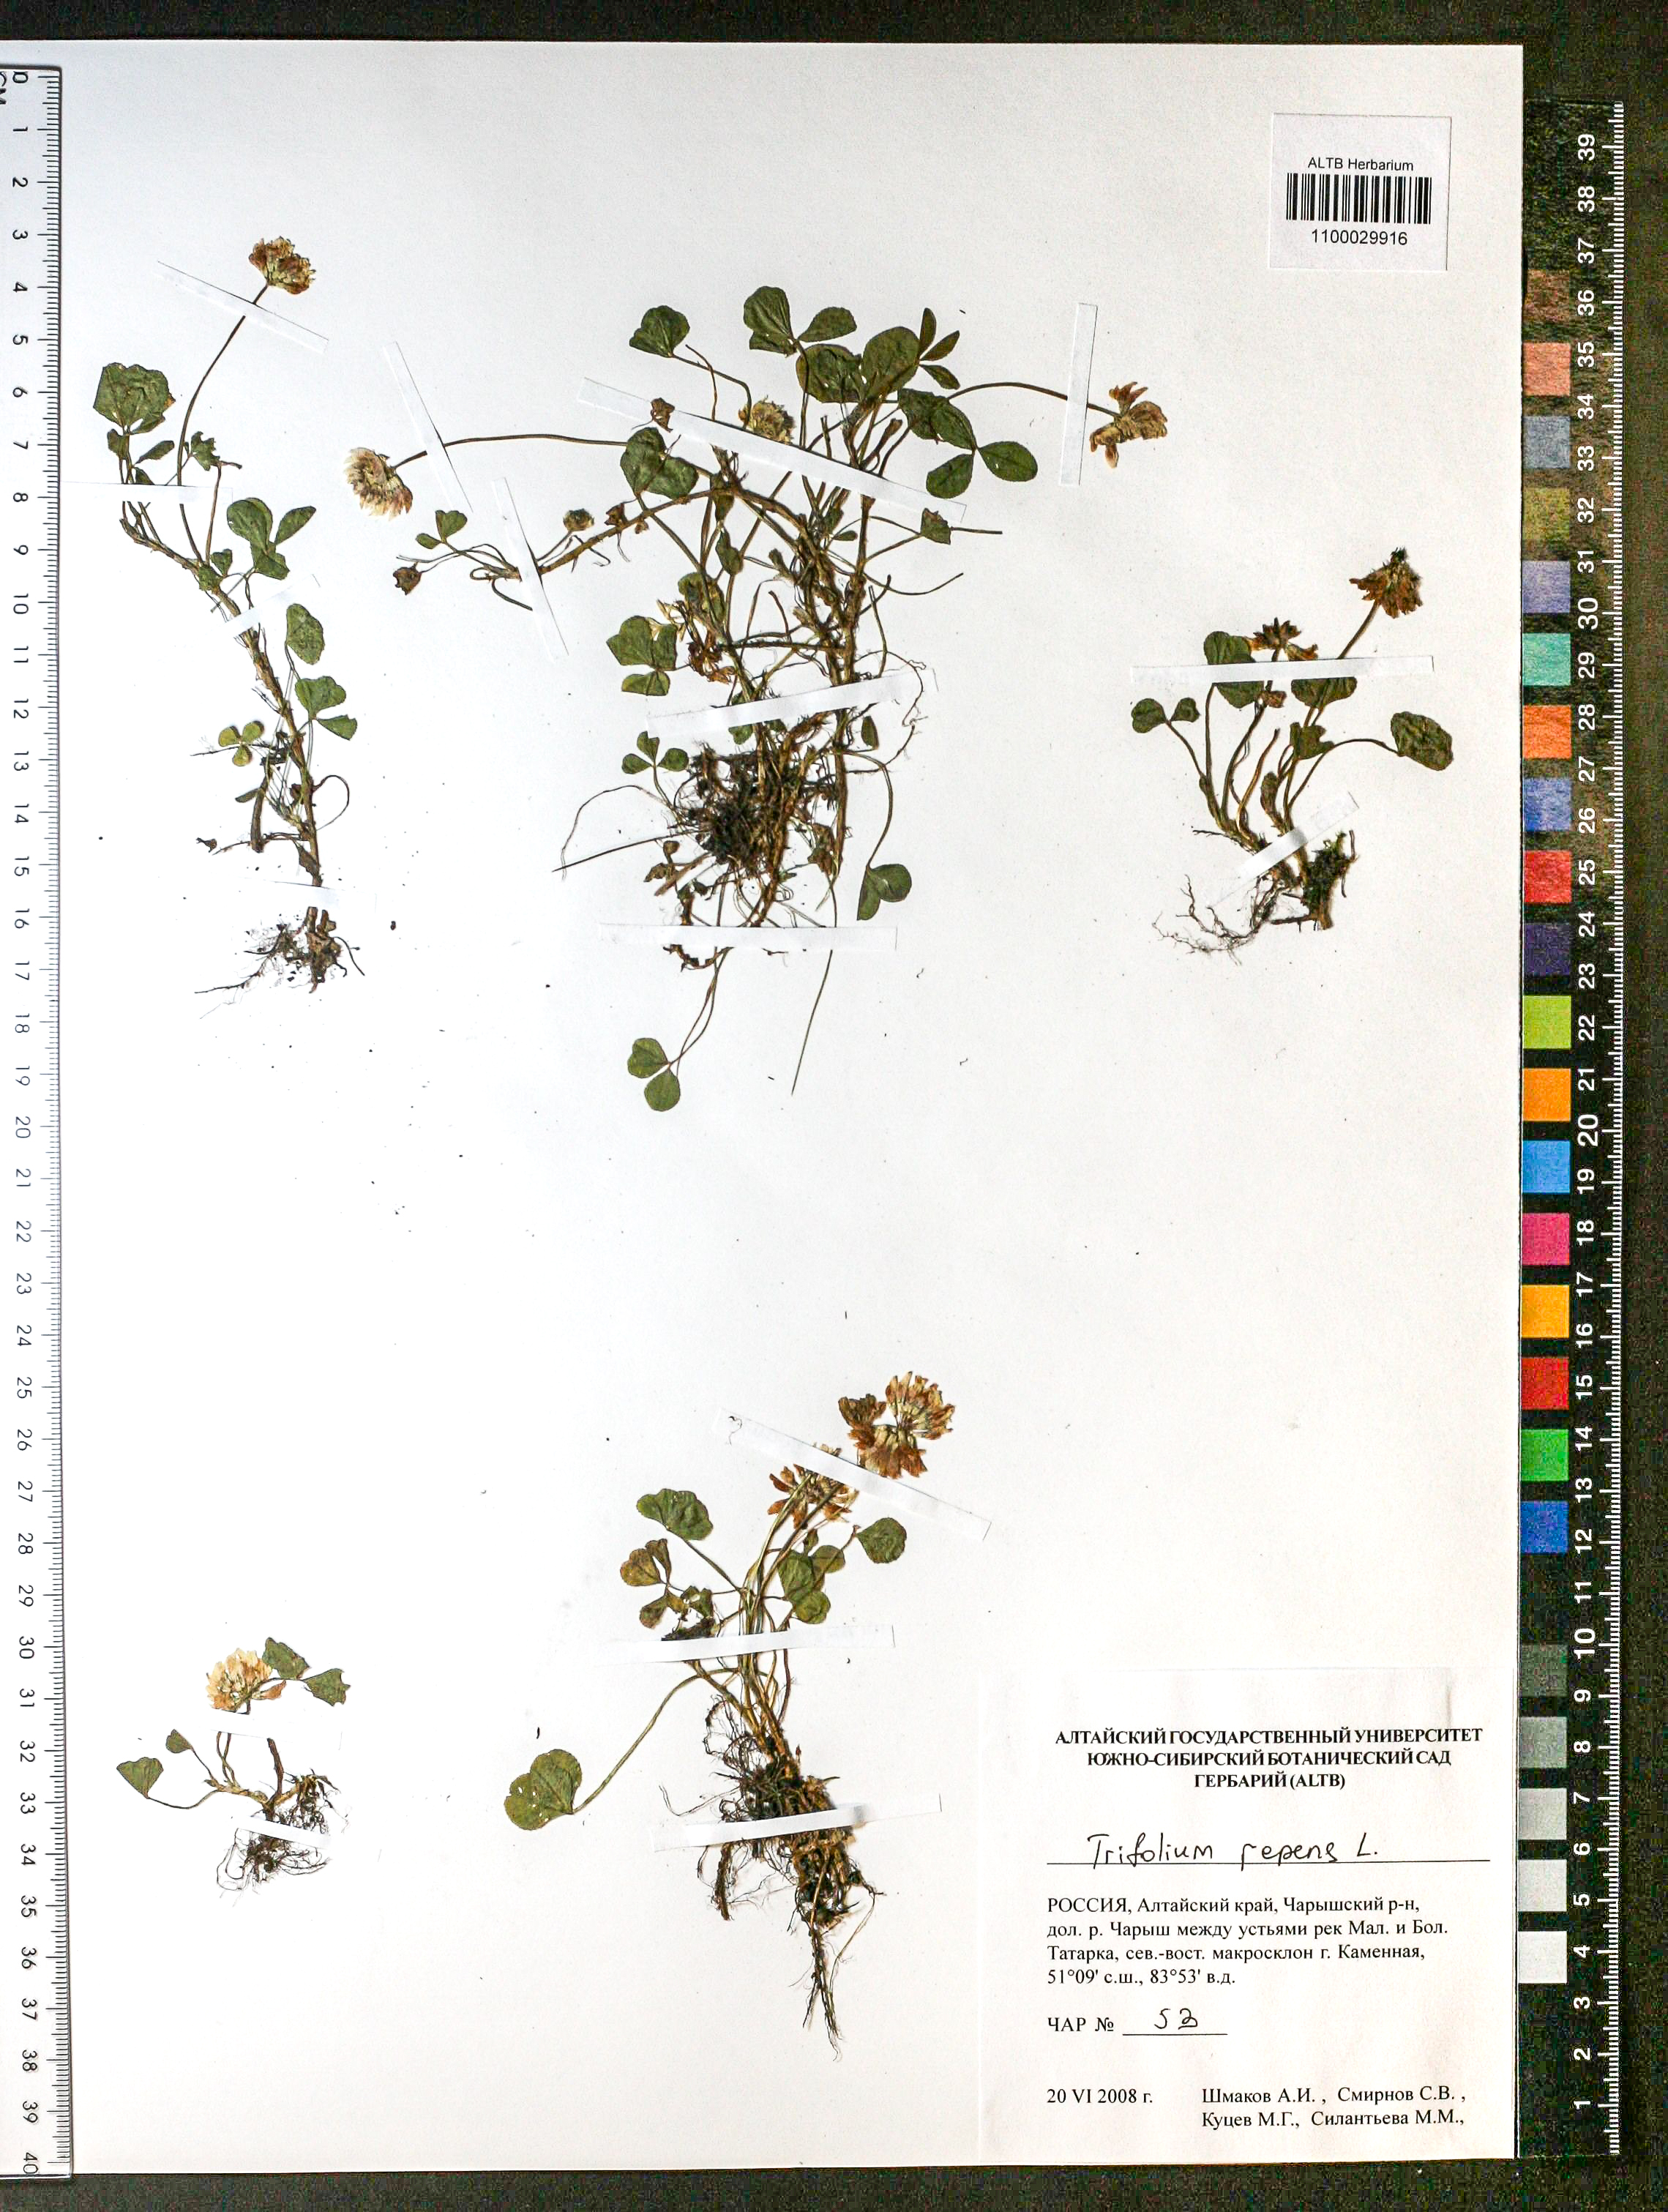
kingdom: Plantae
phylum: Tracheophyta
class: Magnoliopsida
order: Fabales
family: Fabaceae
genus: Trifolium
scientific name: Trifolium repens
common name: White clover
